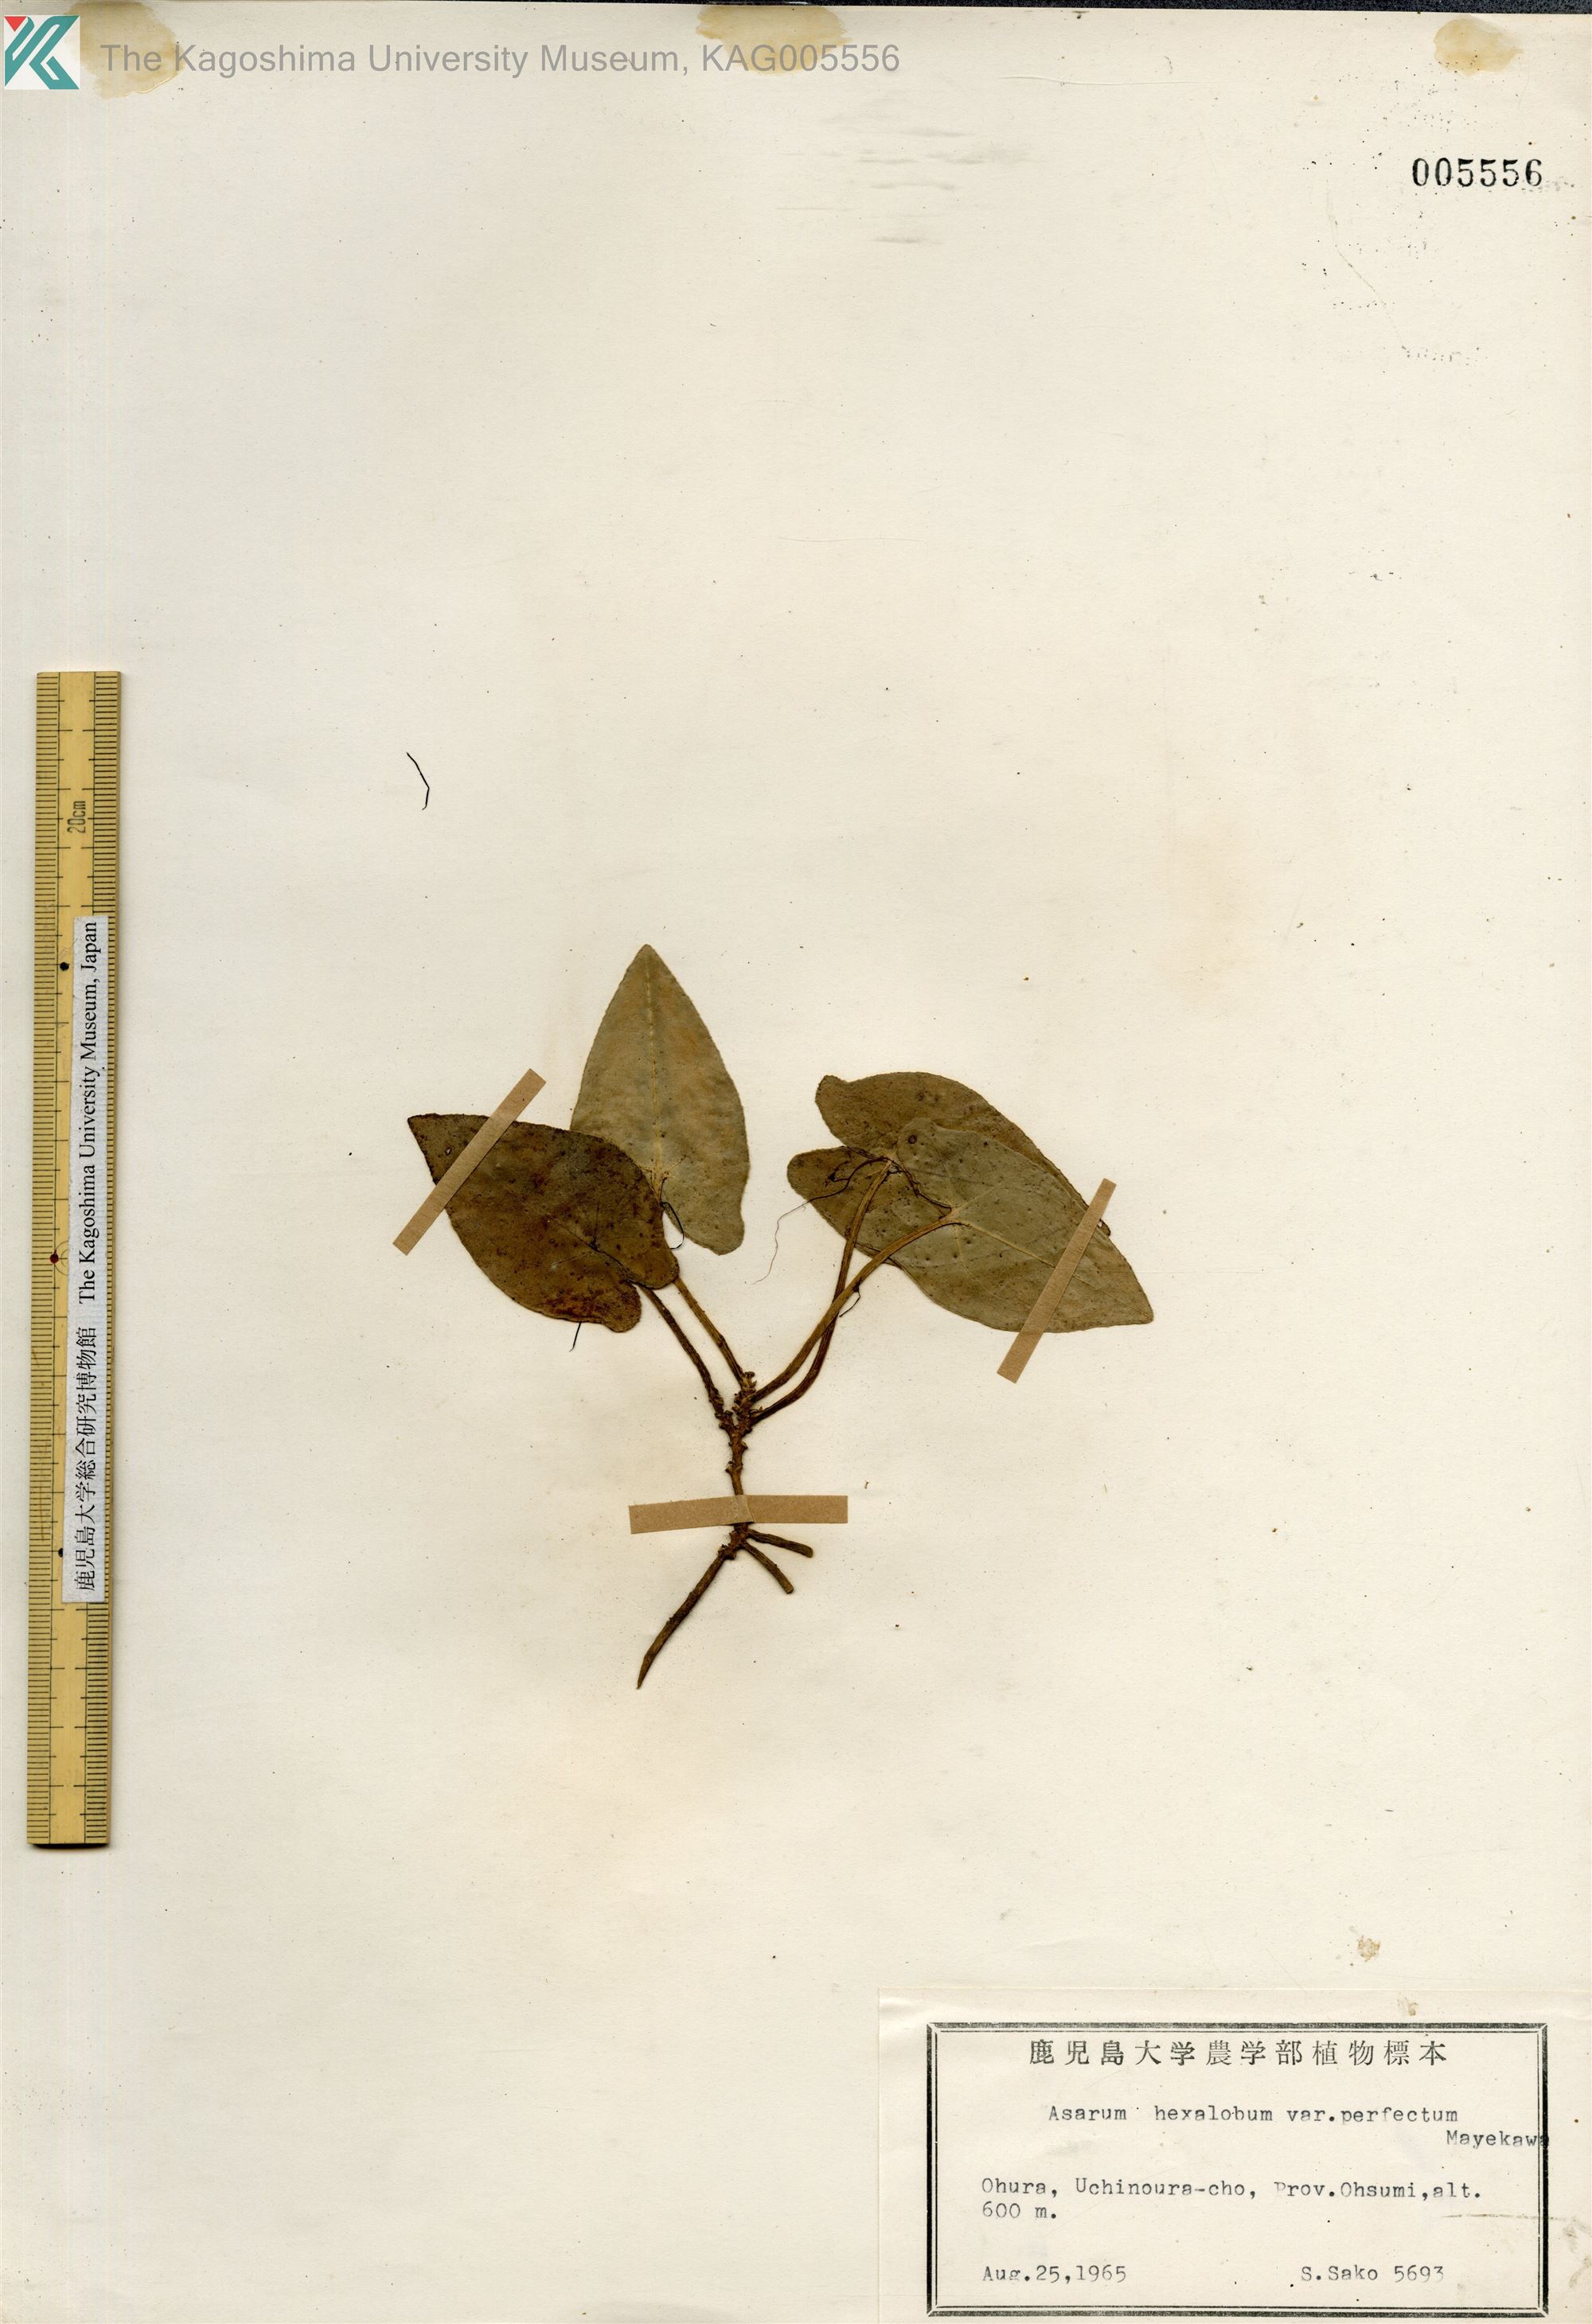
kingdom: Plantae
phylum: Tracheophyta
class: Magnoliopsida
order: Piperales
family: Aristolochiaceae
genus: Asarum
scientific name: Asarum hexalobum
